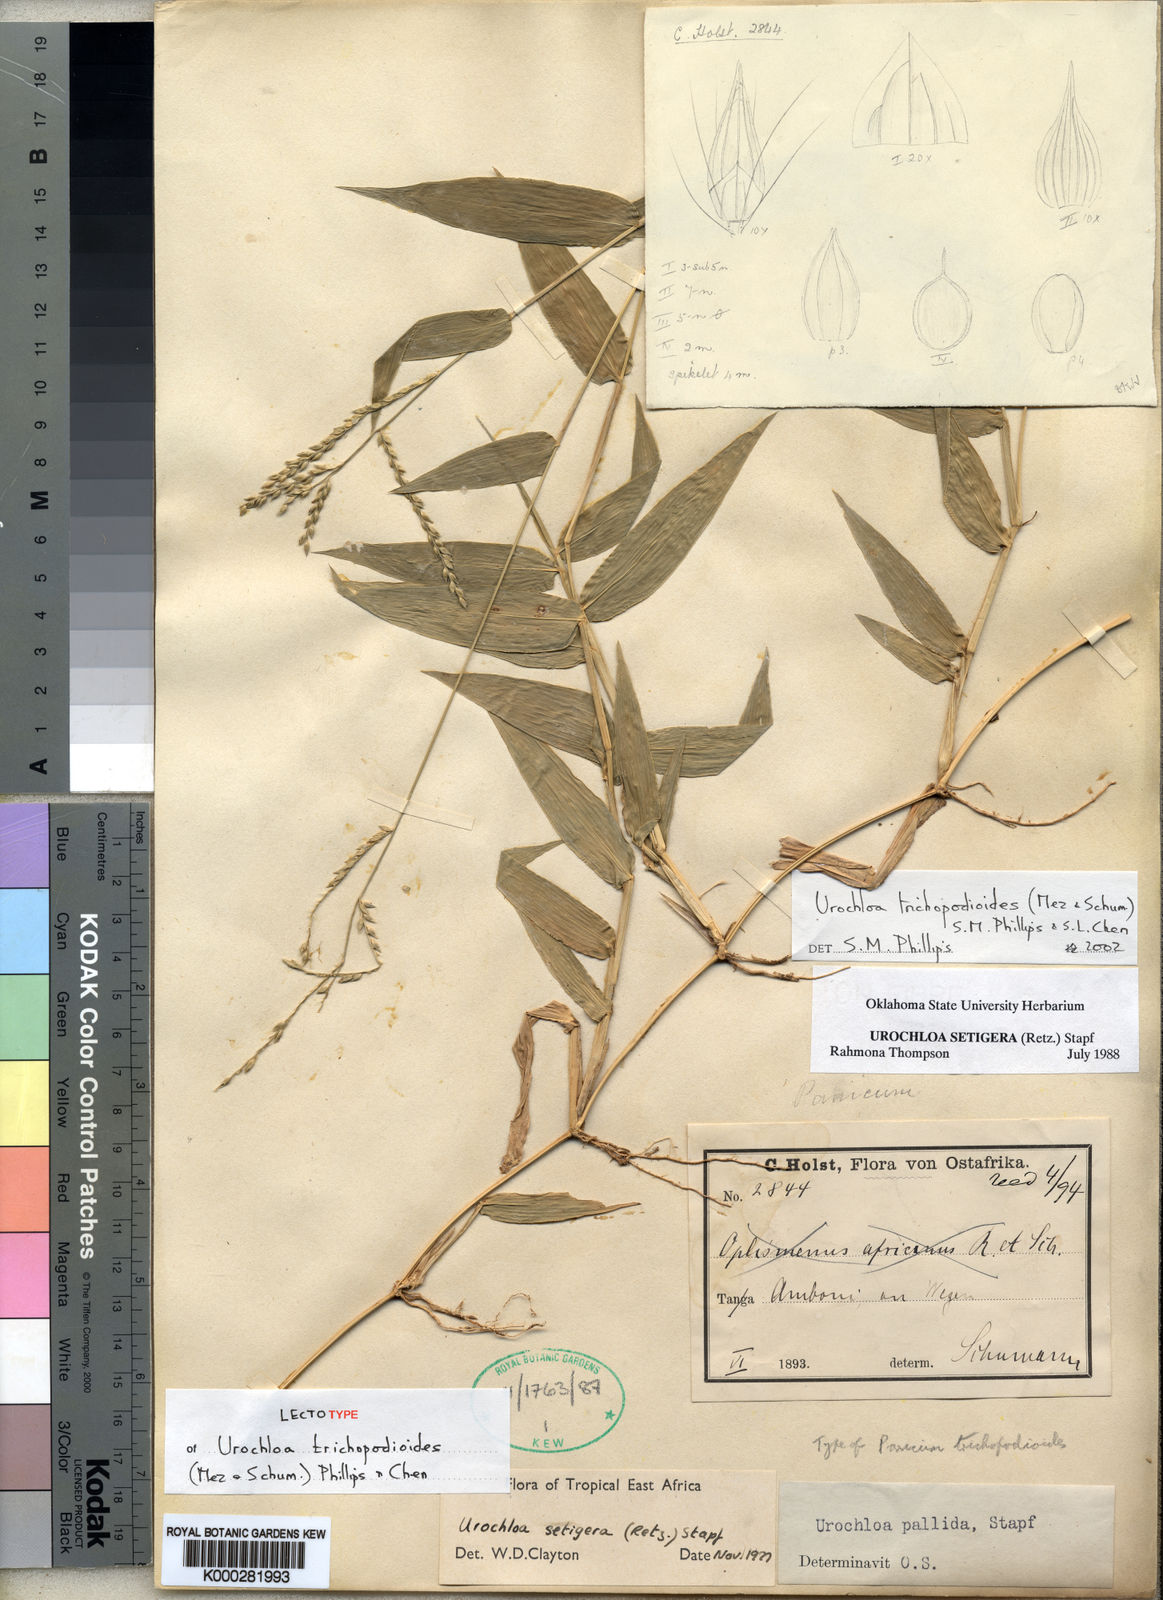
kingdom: Plantae
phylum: Tracheophyta
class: Liliopsida
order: Poales
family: Poaceae
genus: Urochloa
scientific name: Urochloa trichopodioides
